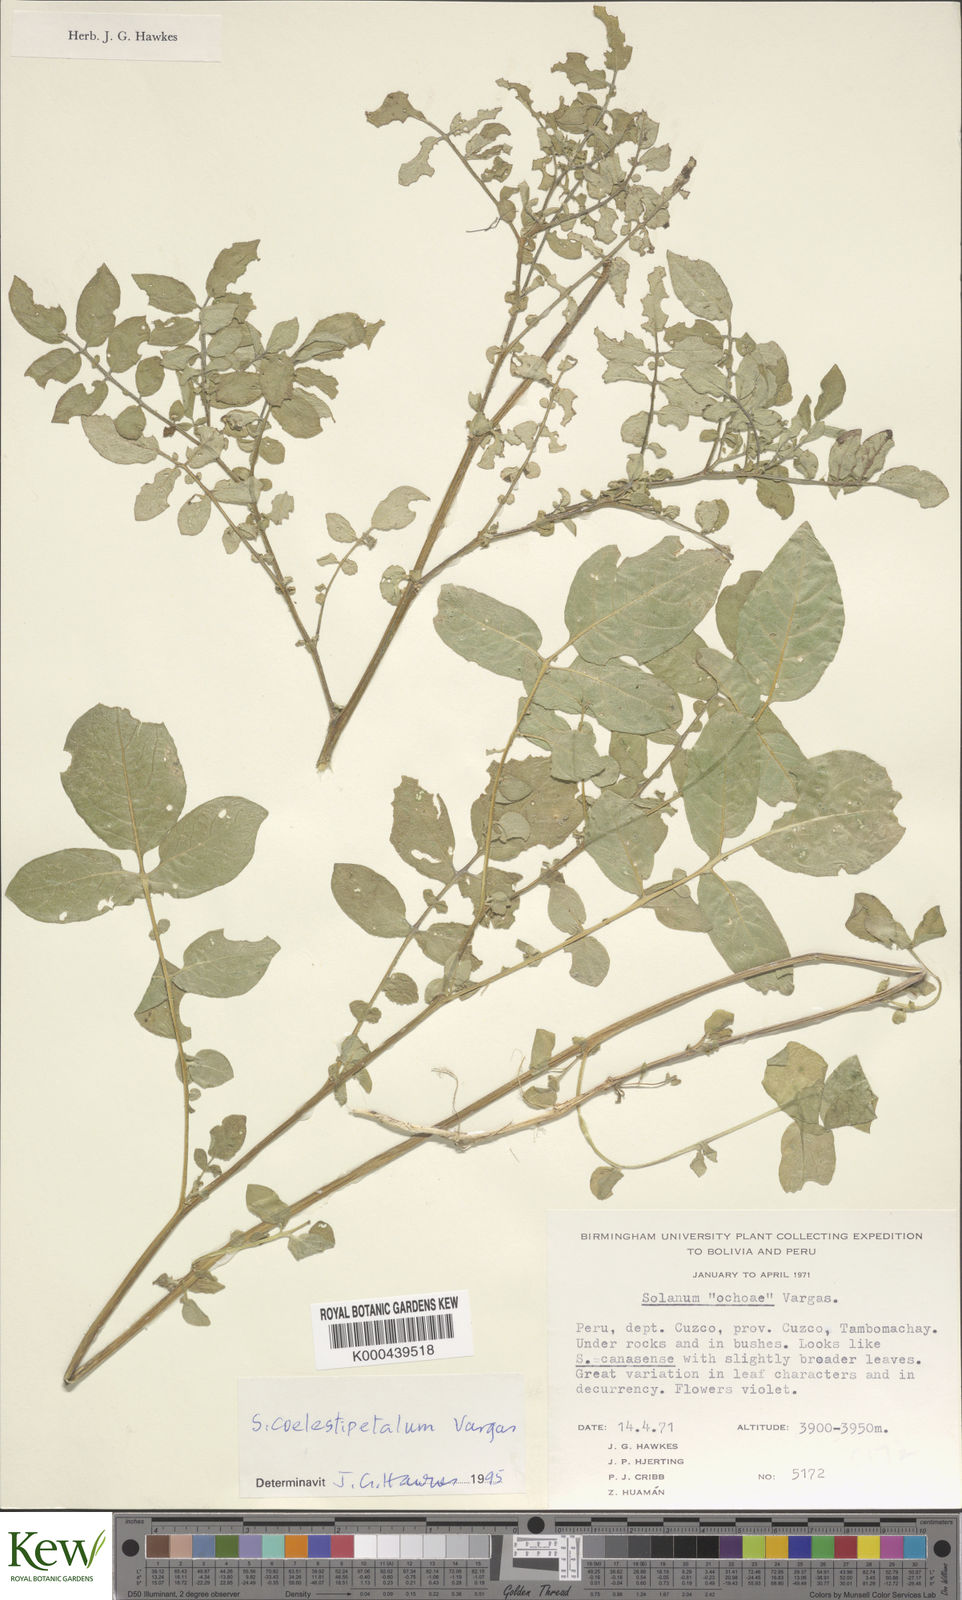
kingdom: Plantae
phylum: Tracheophyta
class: Magnoliopsida
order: Solanales
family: Solanaceae
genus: Solanum
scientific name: Solanum aligerum
